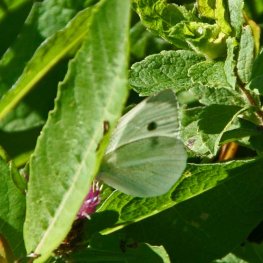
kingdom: Animalia
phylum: Arthropoda
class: Insecta
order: Lepidoptera
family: Pieridae
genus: Pieris
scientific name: Pieris rapae
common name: Cabbage White
